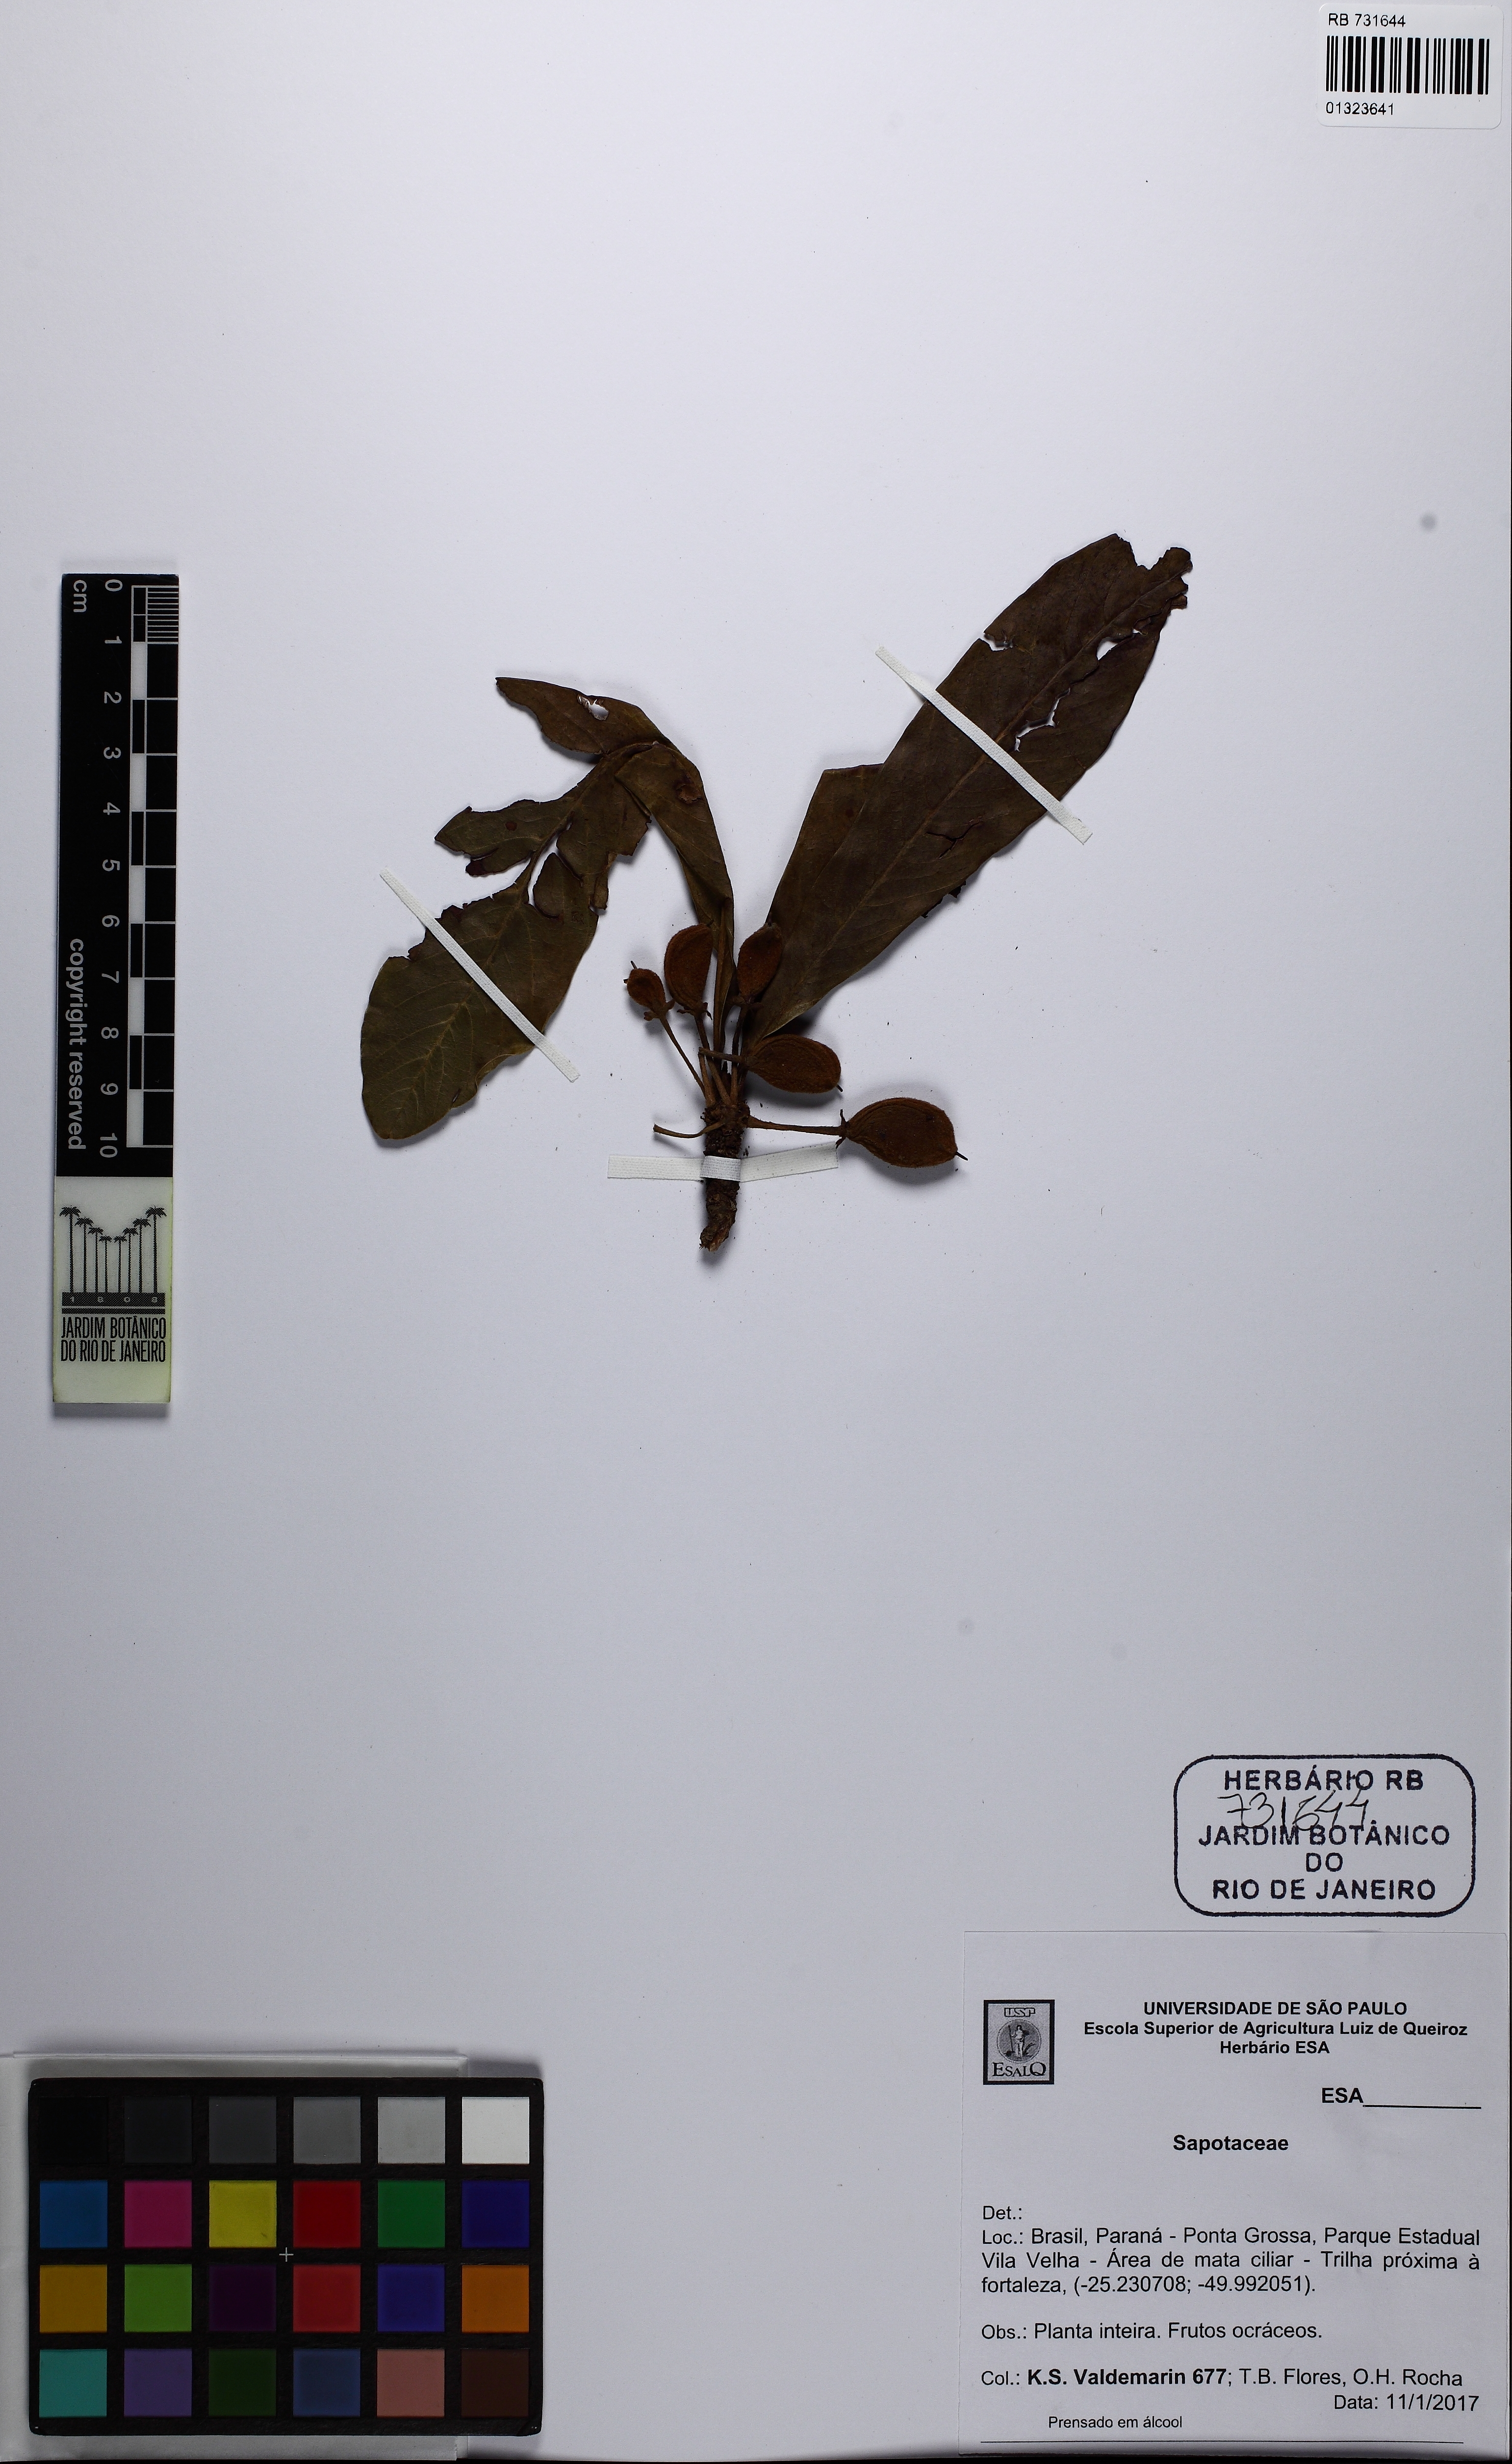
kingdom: Plantae
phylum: Tracheophyta
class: Magnoliopsida
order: Ericales
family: Sapotaceae
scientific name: Sapotaceae
